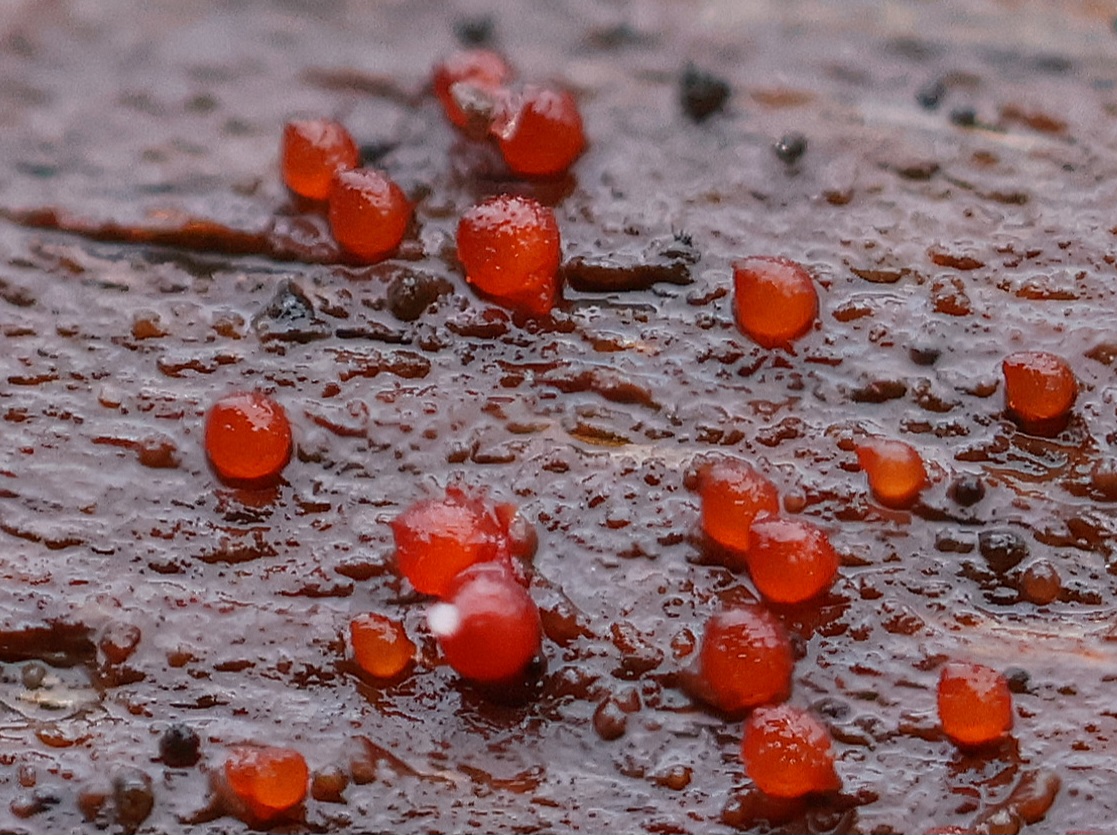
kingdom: Fungi
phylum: Ascomycota
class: Sordariomycetes
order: Hypocreales
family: Nectriaceae
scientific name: Nectriaceae
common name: cinnobersvampfamilien
